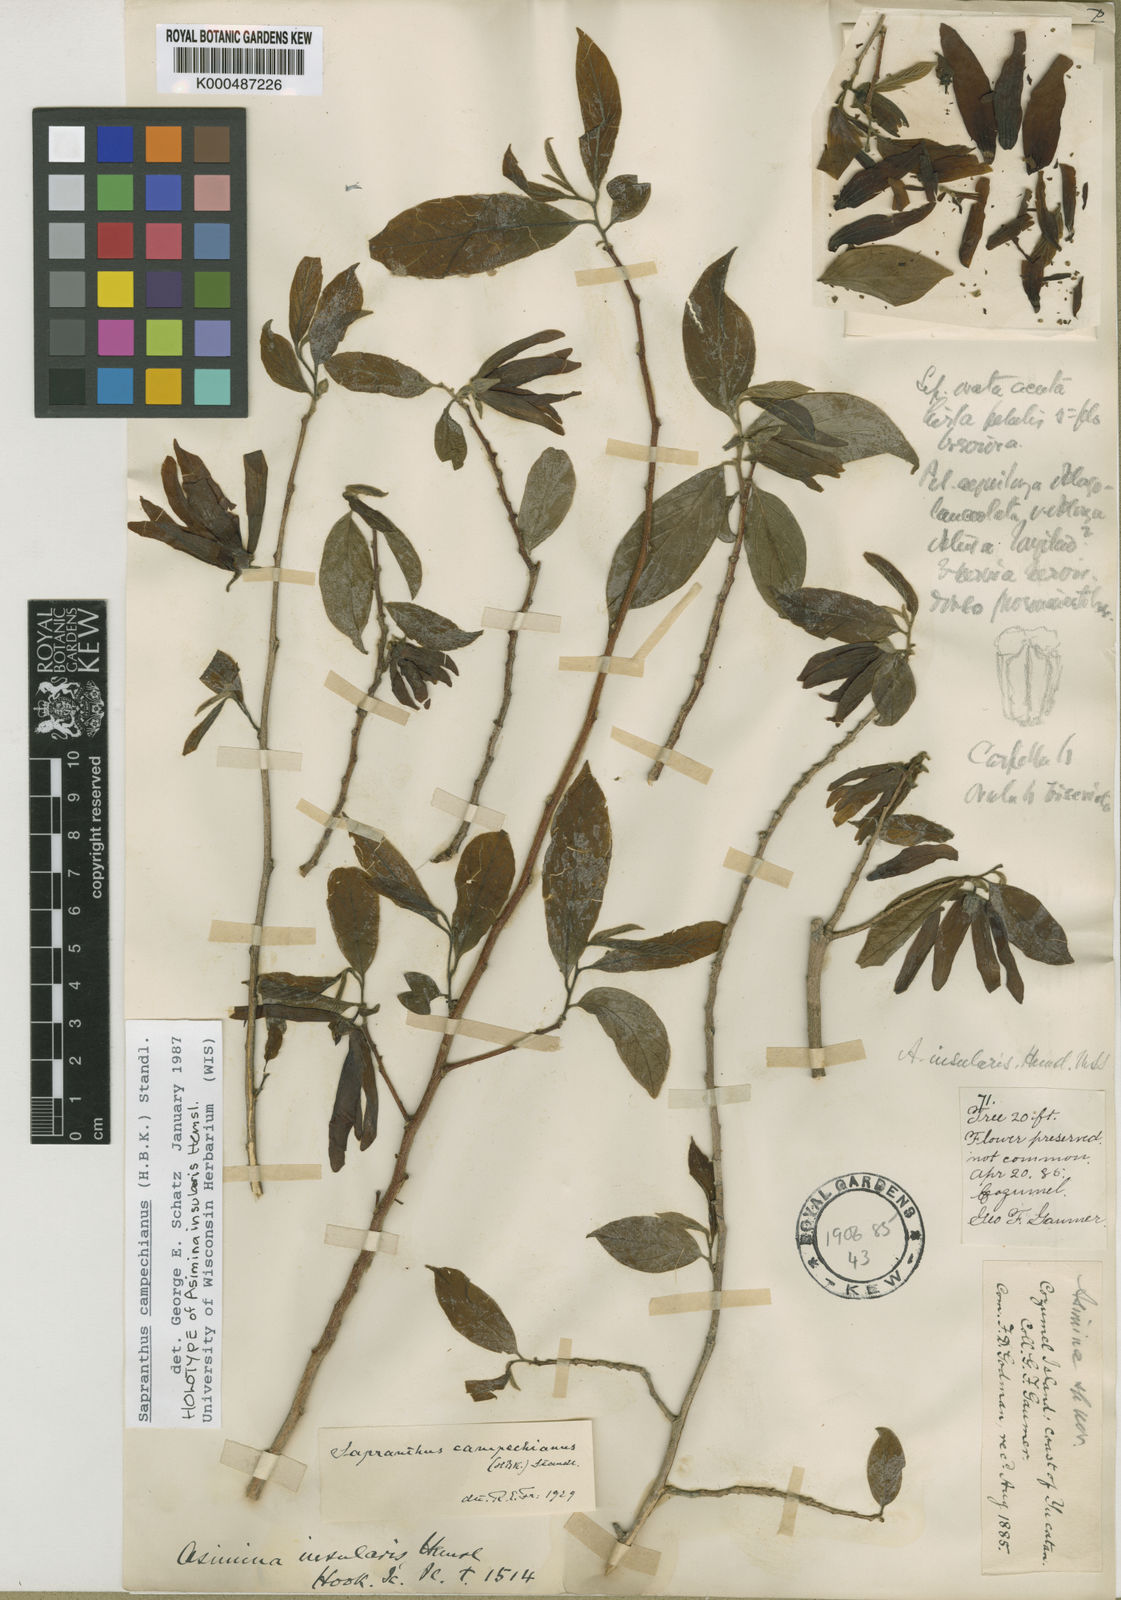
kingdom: Plantae
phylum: Tracheophyta
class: Magnoliopsida
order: Magnoliales
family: Annonaceae
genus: Sapranthus
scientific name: Sapranthus campechianus
